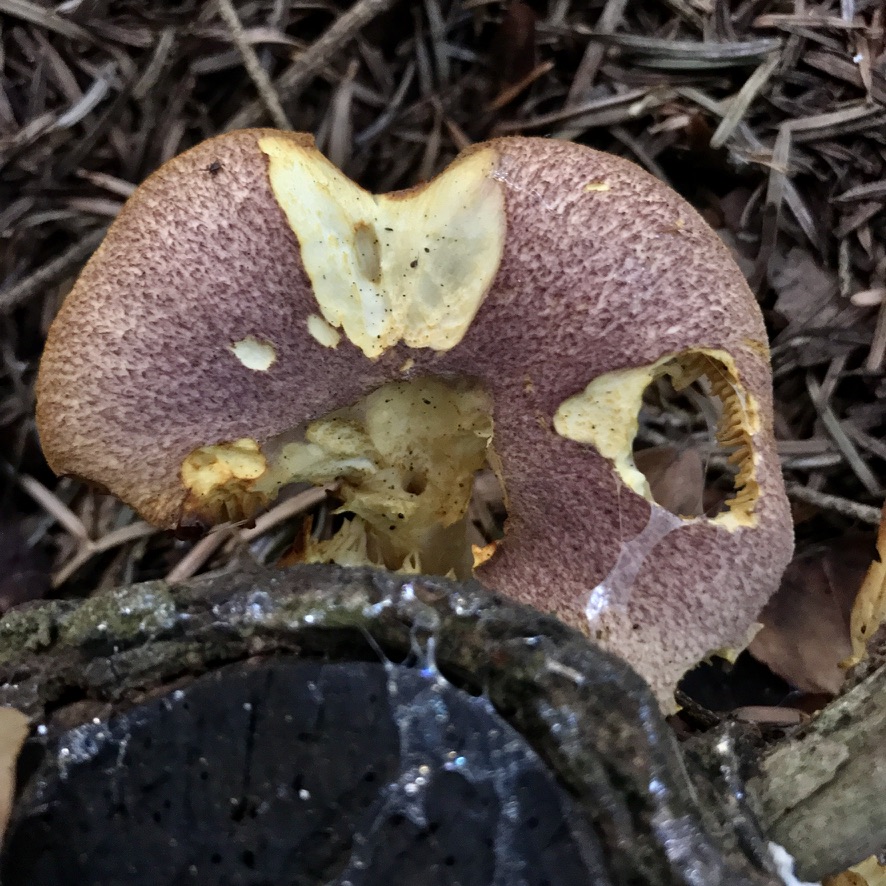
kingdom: Fungi
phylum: Basidiomycota
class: Agaricomycetes
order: Agaricales
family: Tricholomataceae
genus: Tricholomopsis
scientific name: Tricholomopsis rutilans
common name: purpur-væbnerhat
